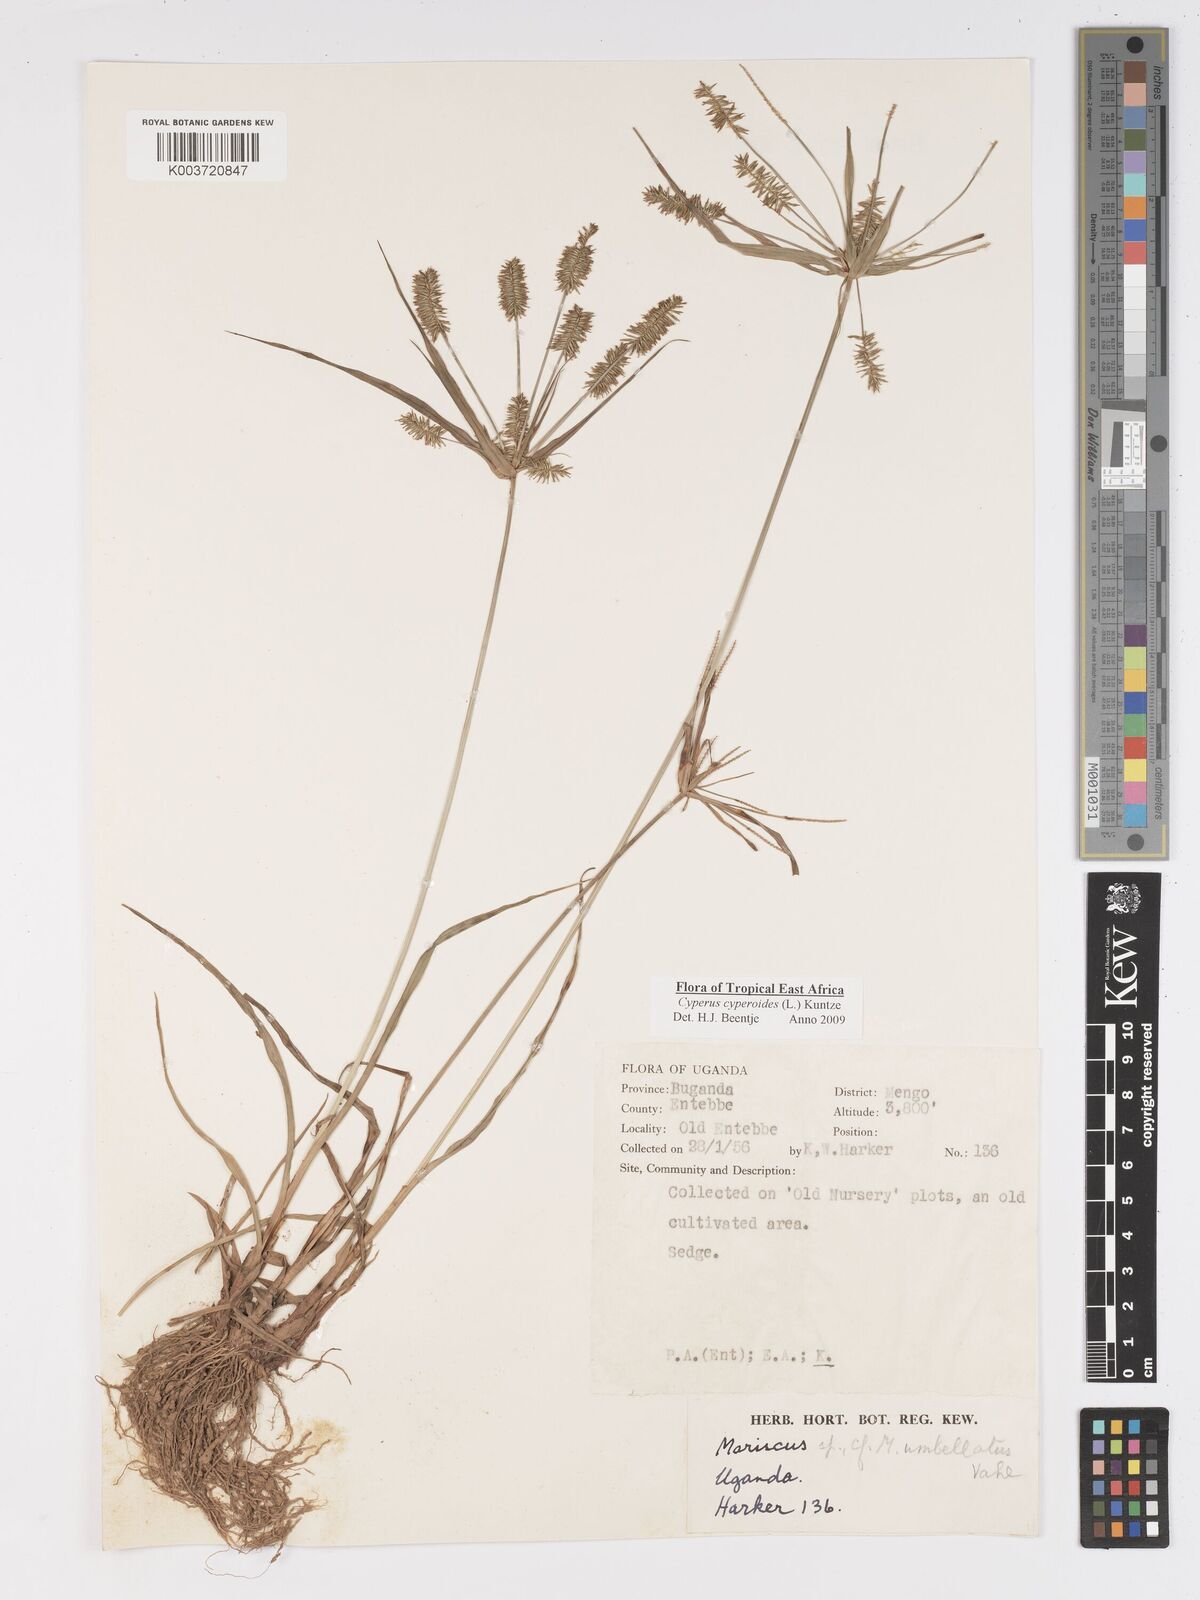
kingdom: Plantae
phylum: Tracheophyta
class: Liliopsida
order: Poales
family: Cyperaceae
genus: Cyperus
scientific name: Cyperus cyperoides
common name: Pacific island flat sedge
